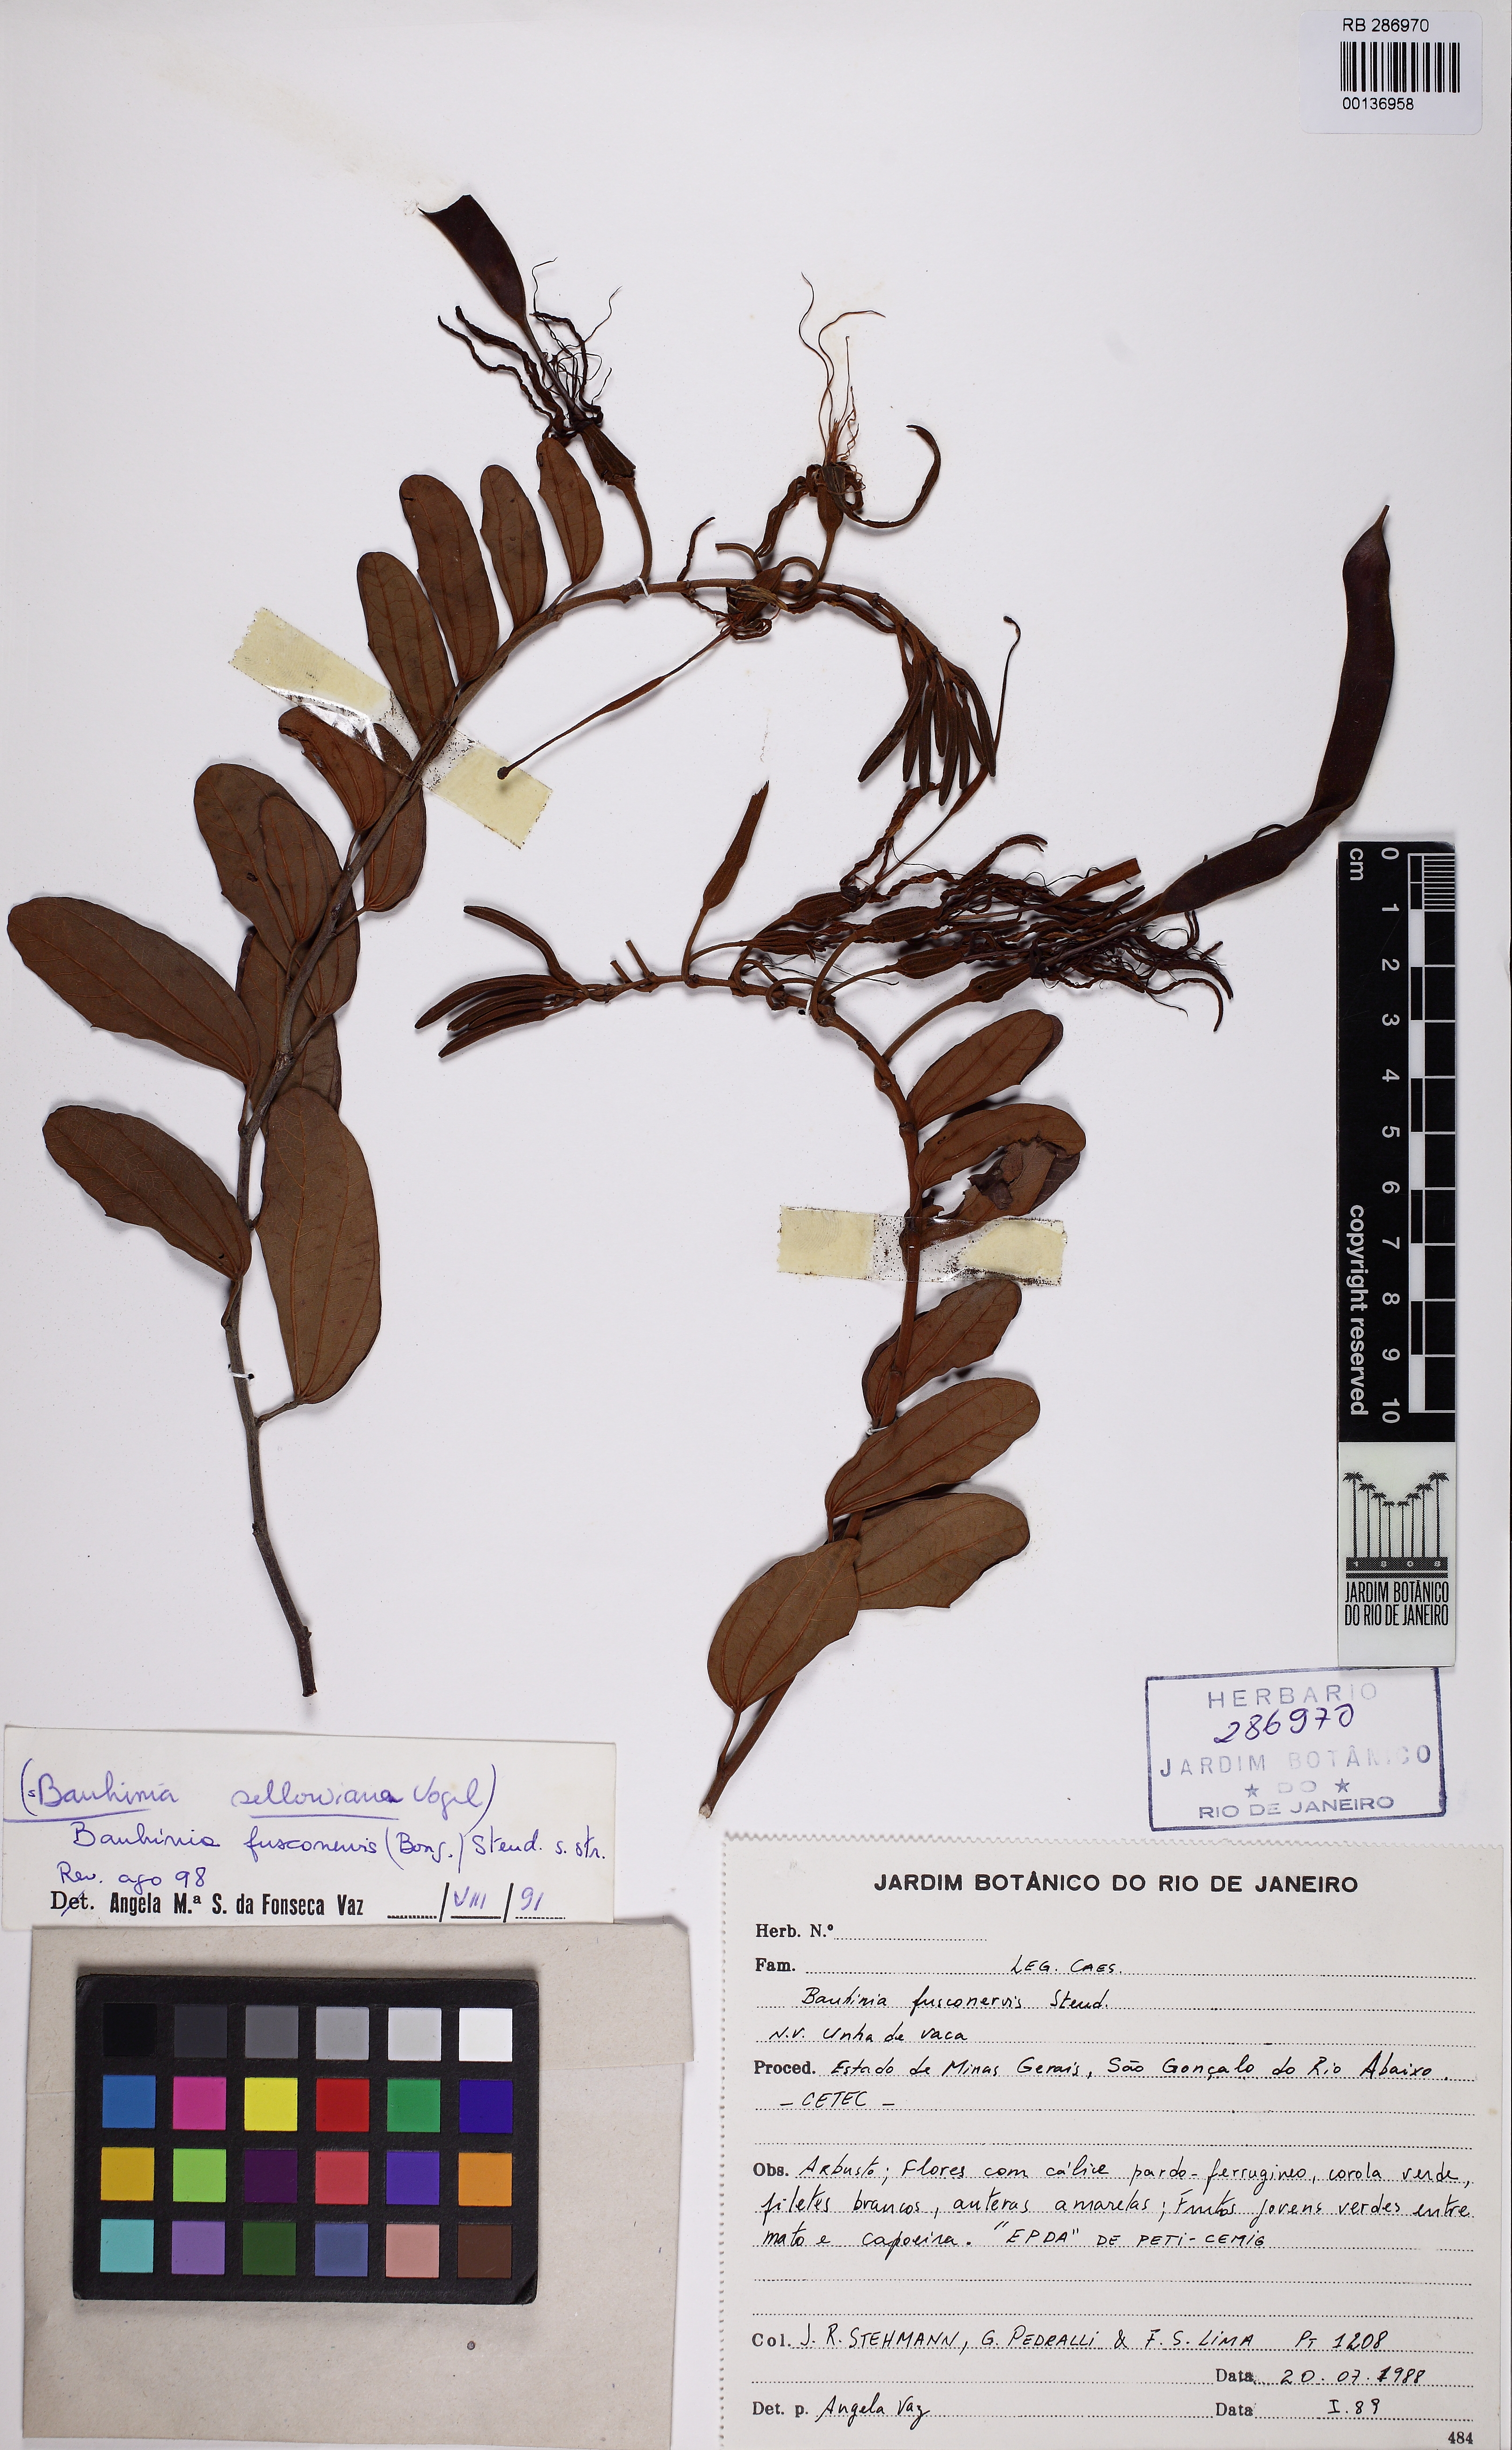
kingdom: Plantae
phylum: Tracheophyta
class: Magnoliopsida
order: Fabales
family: Fabaceae
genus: Bauhinia
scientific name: Bauhinia fusconervis
